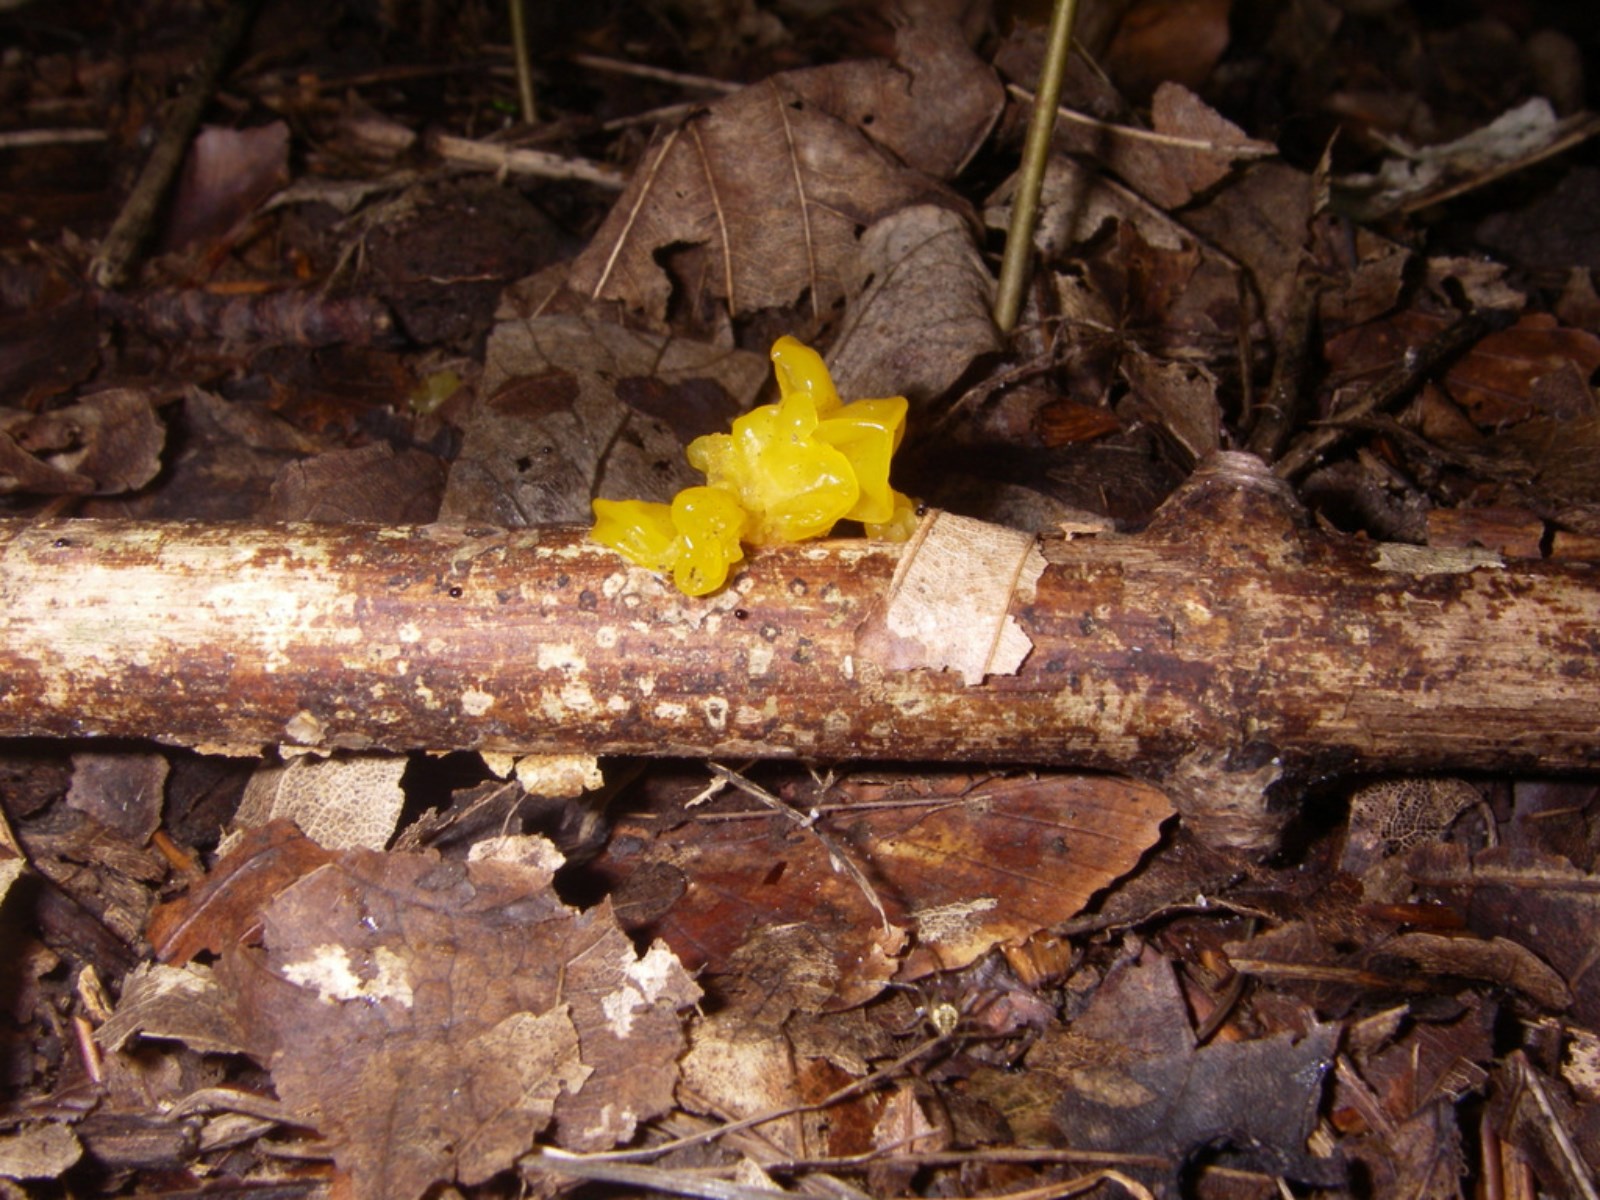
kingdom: Fungi
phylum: Basidiomycota
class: Tremellomycetes
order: Tremellales
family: Tremellaceae
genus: Tremella
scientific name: Tremella mesenterica
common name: gul bævresvamp
